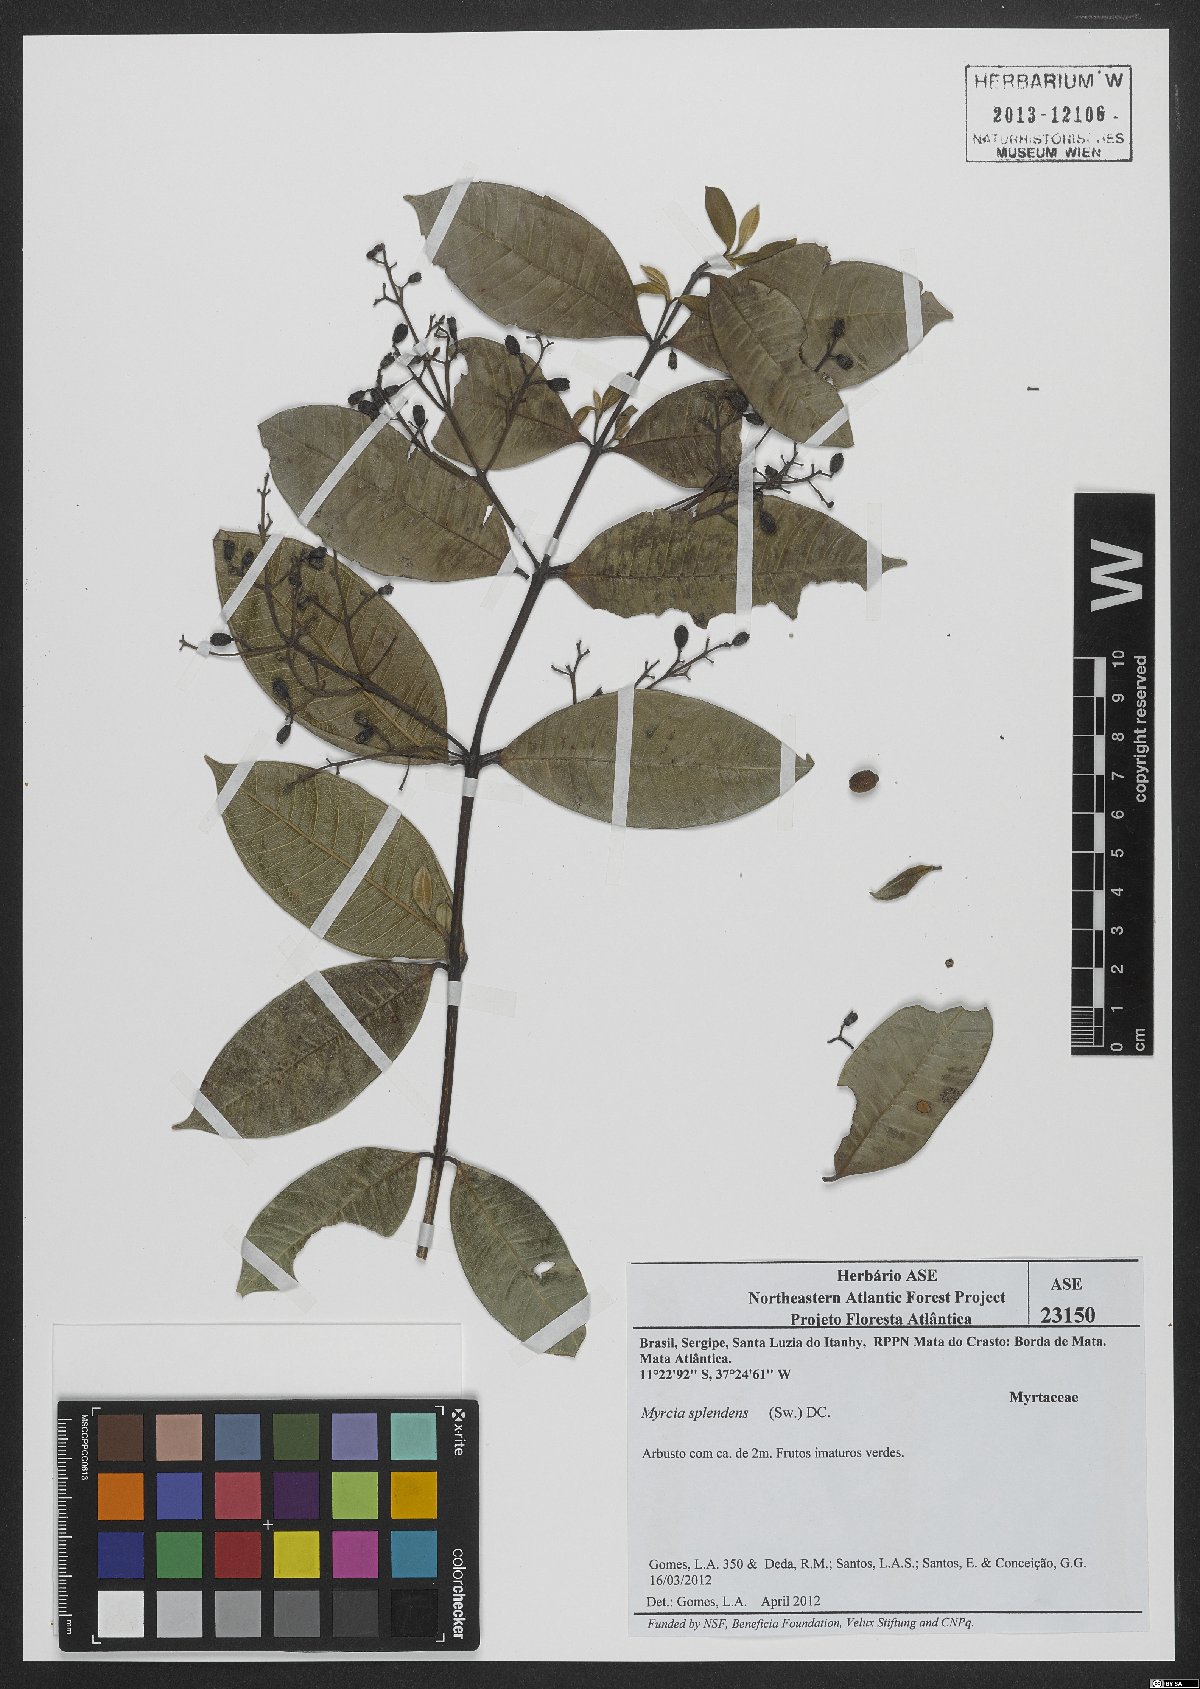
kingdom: Plantae
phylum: Tracheophyta
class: Magnoliopsida
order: Myrtales
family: Myrtaceae
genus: Myrcia
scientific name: Myrcia splendens
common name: Surinam cherry
